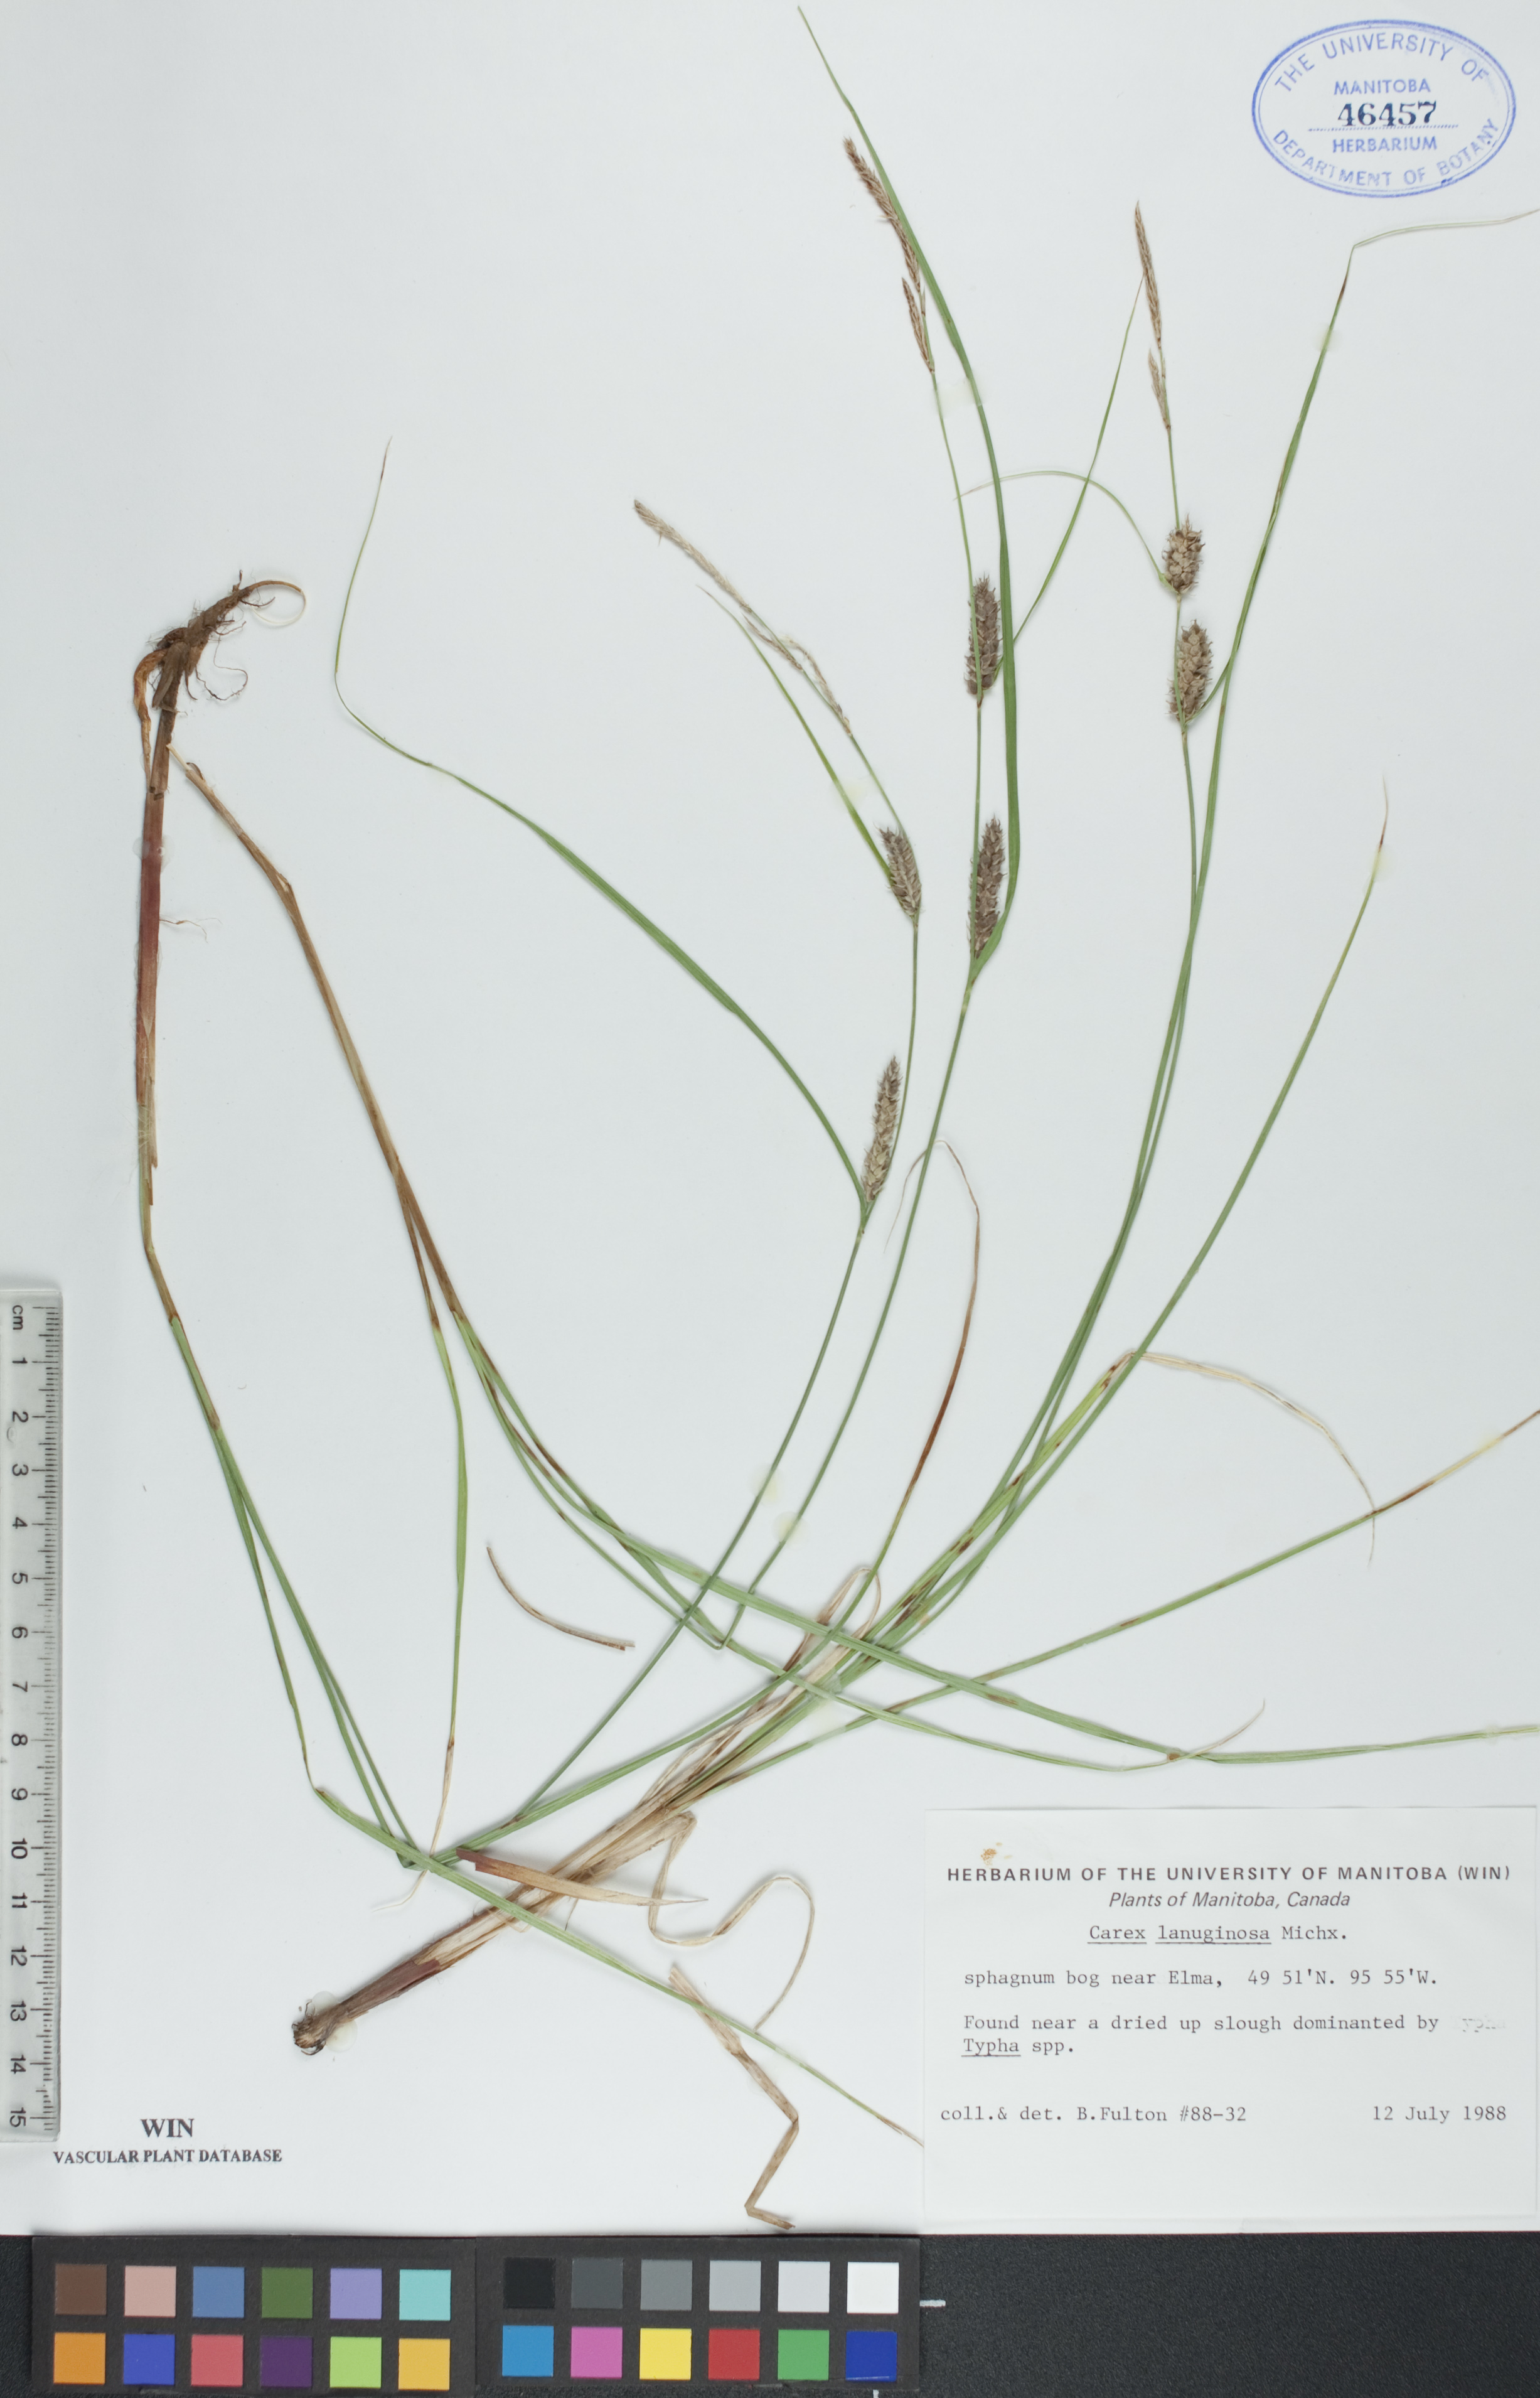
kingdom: Plantae
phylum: Tracheophyta
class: Liliopsida
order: Poales
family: Cyperaceae
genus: Carex
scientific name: Carex lasiocarpa
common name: Slender sedge
